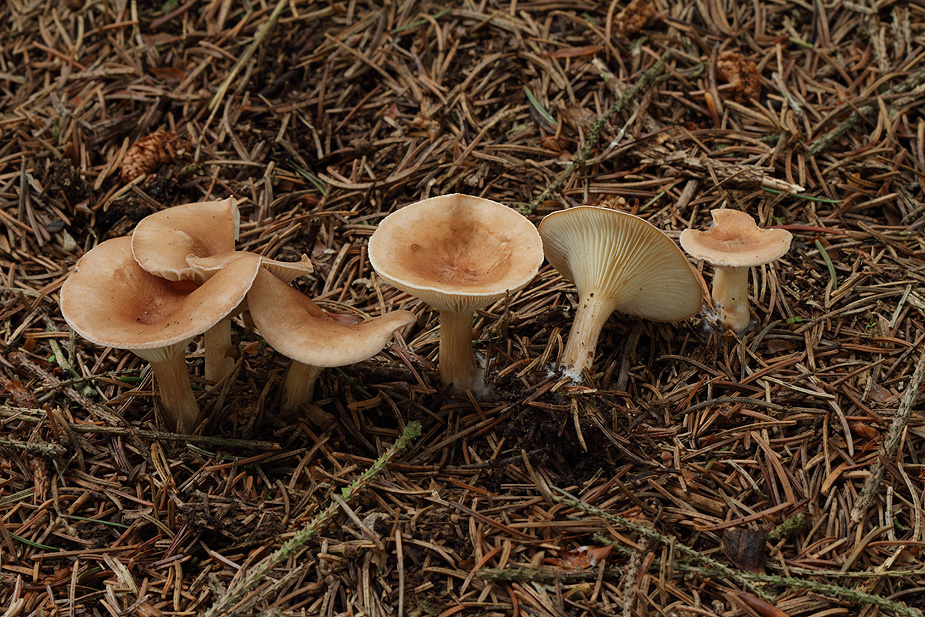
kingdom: Fungi
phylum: Basidiomycota
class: Agaricomycetes
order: Agaricales
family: Tricholomataceae
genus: Infundibulicybe
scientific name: Infundibulicybe gibba
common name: almindelig tragthat
